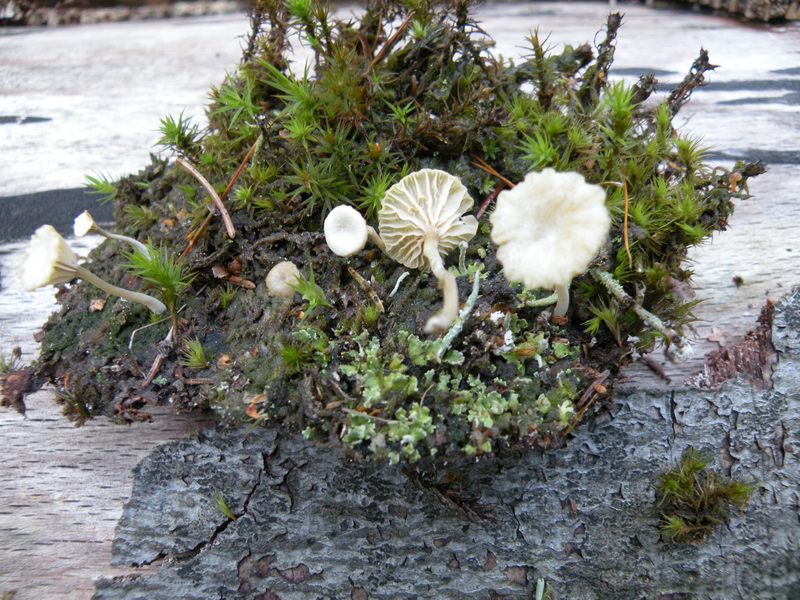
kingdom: Fungi
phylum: Basidiomycota
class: Agaricomycetes
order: Agaricales
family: Hygrophoraceae
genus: Lichenomphalia
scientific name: Lichenomphalia umbellifera
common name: tørve-lavhat
